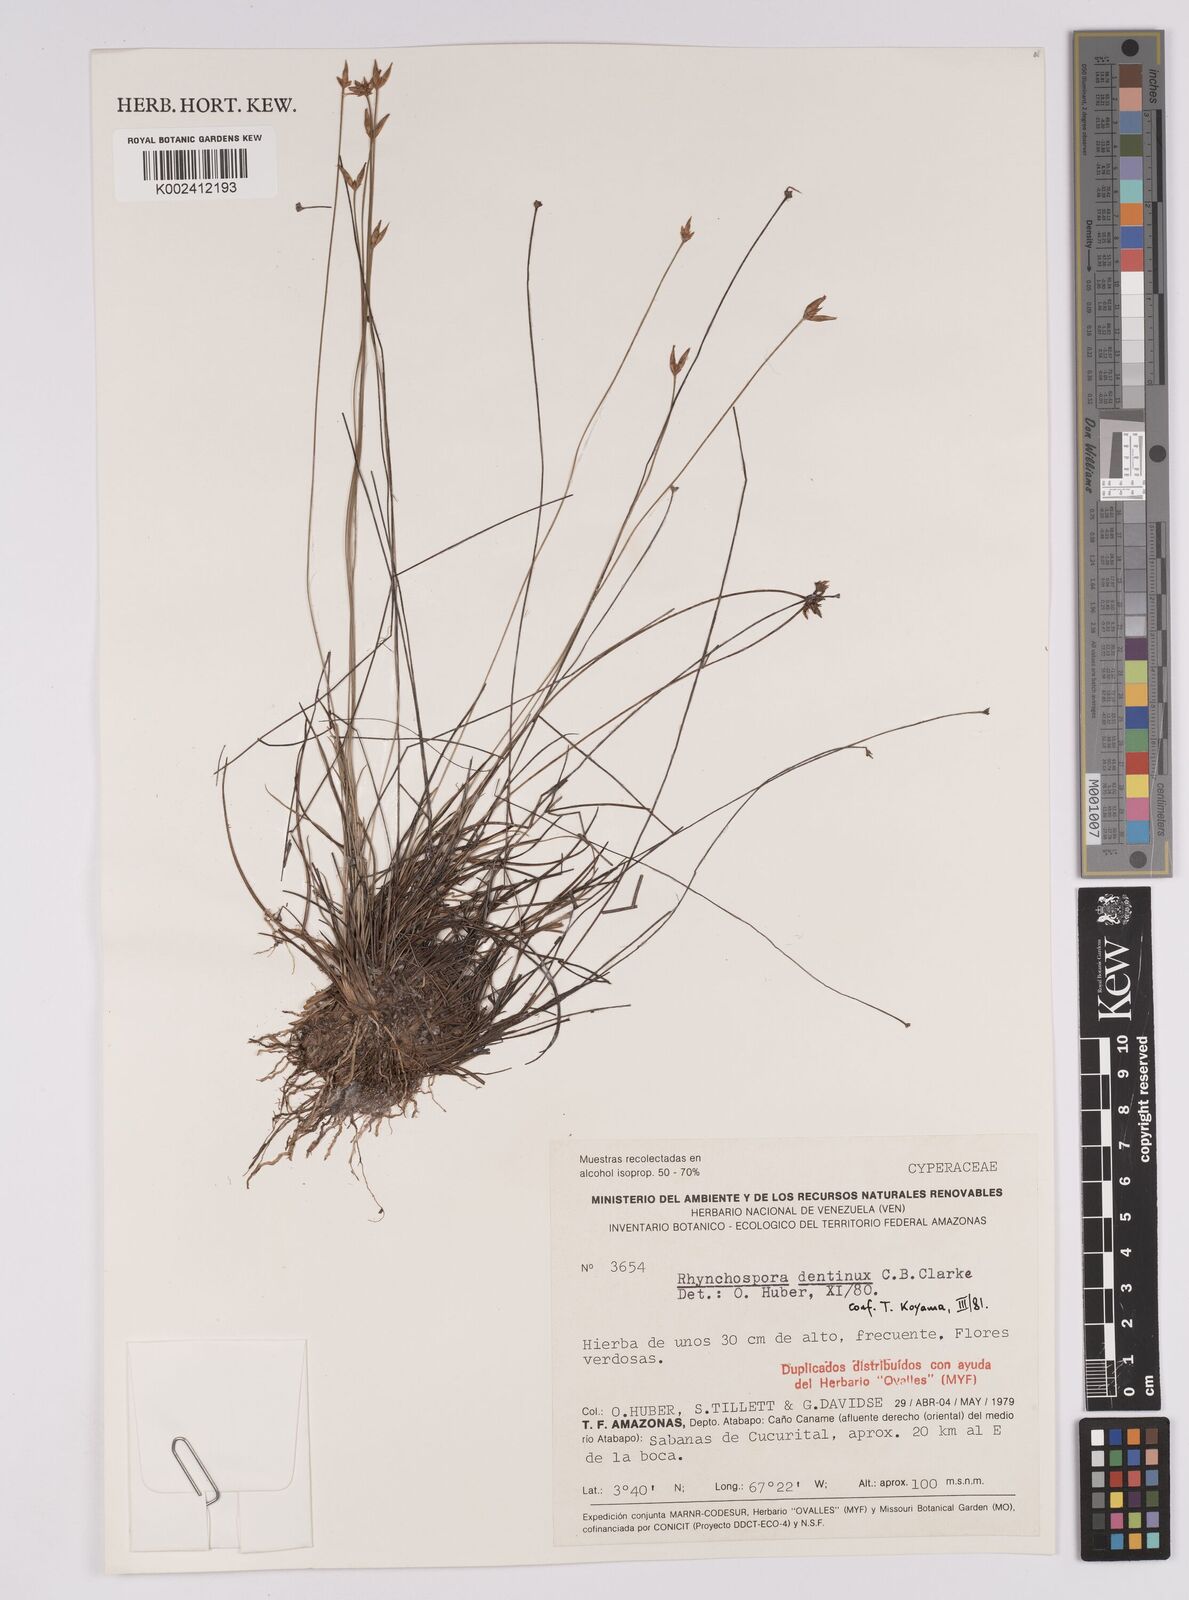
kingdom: Plantae
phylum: Tracheophyta
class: Liliopsida
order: Poales
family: Cyperaceae
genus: Rhynchospora
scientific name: Rhynchospora dentinux
